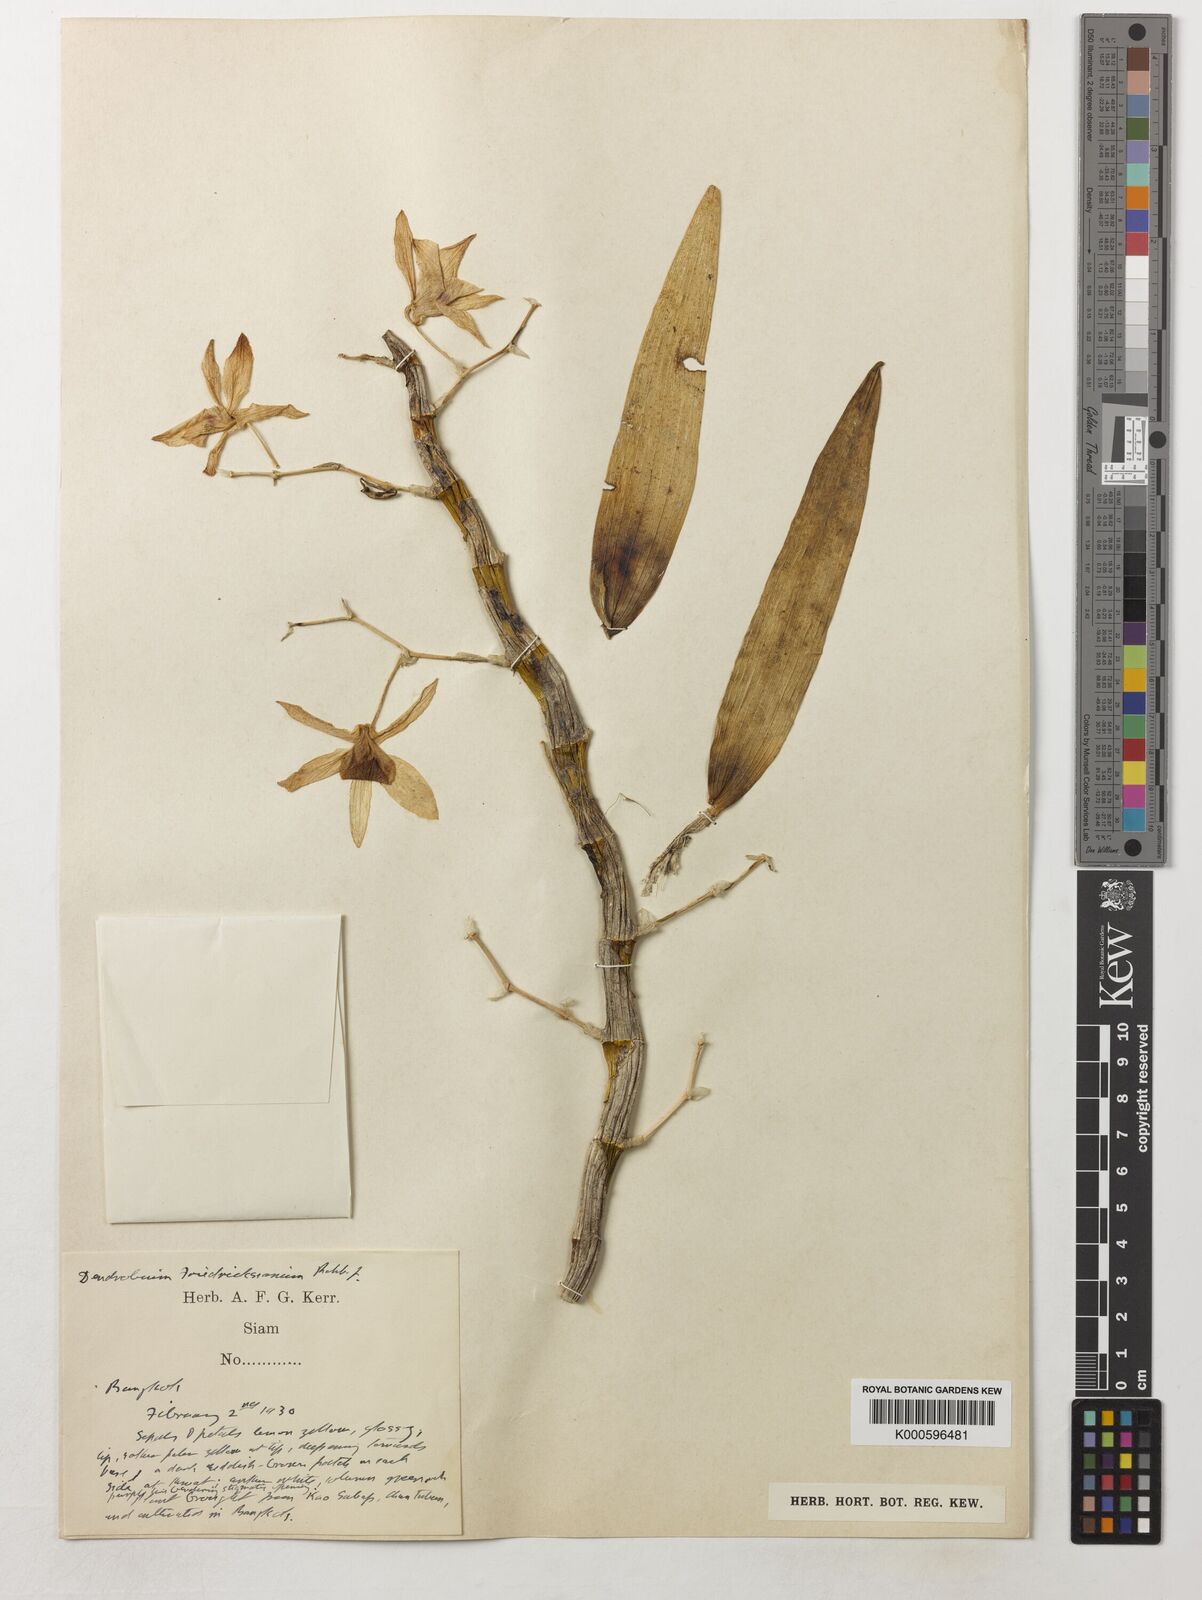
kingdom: Plantae
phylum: Tracheophyta
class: Liliopsida
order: Asparagales
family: Orchidaceae
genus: Dendrobium
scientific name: Dendrobium friedericksianum
